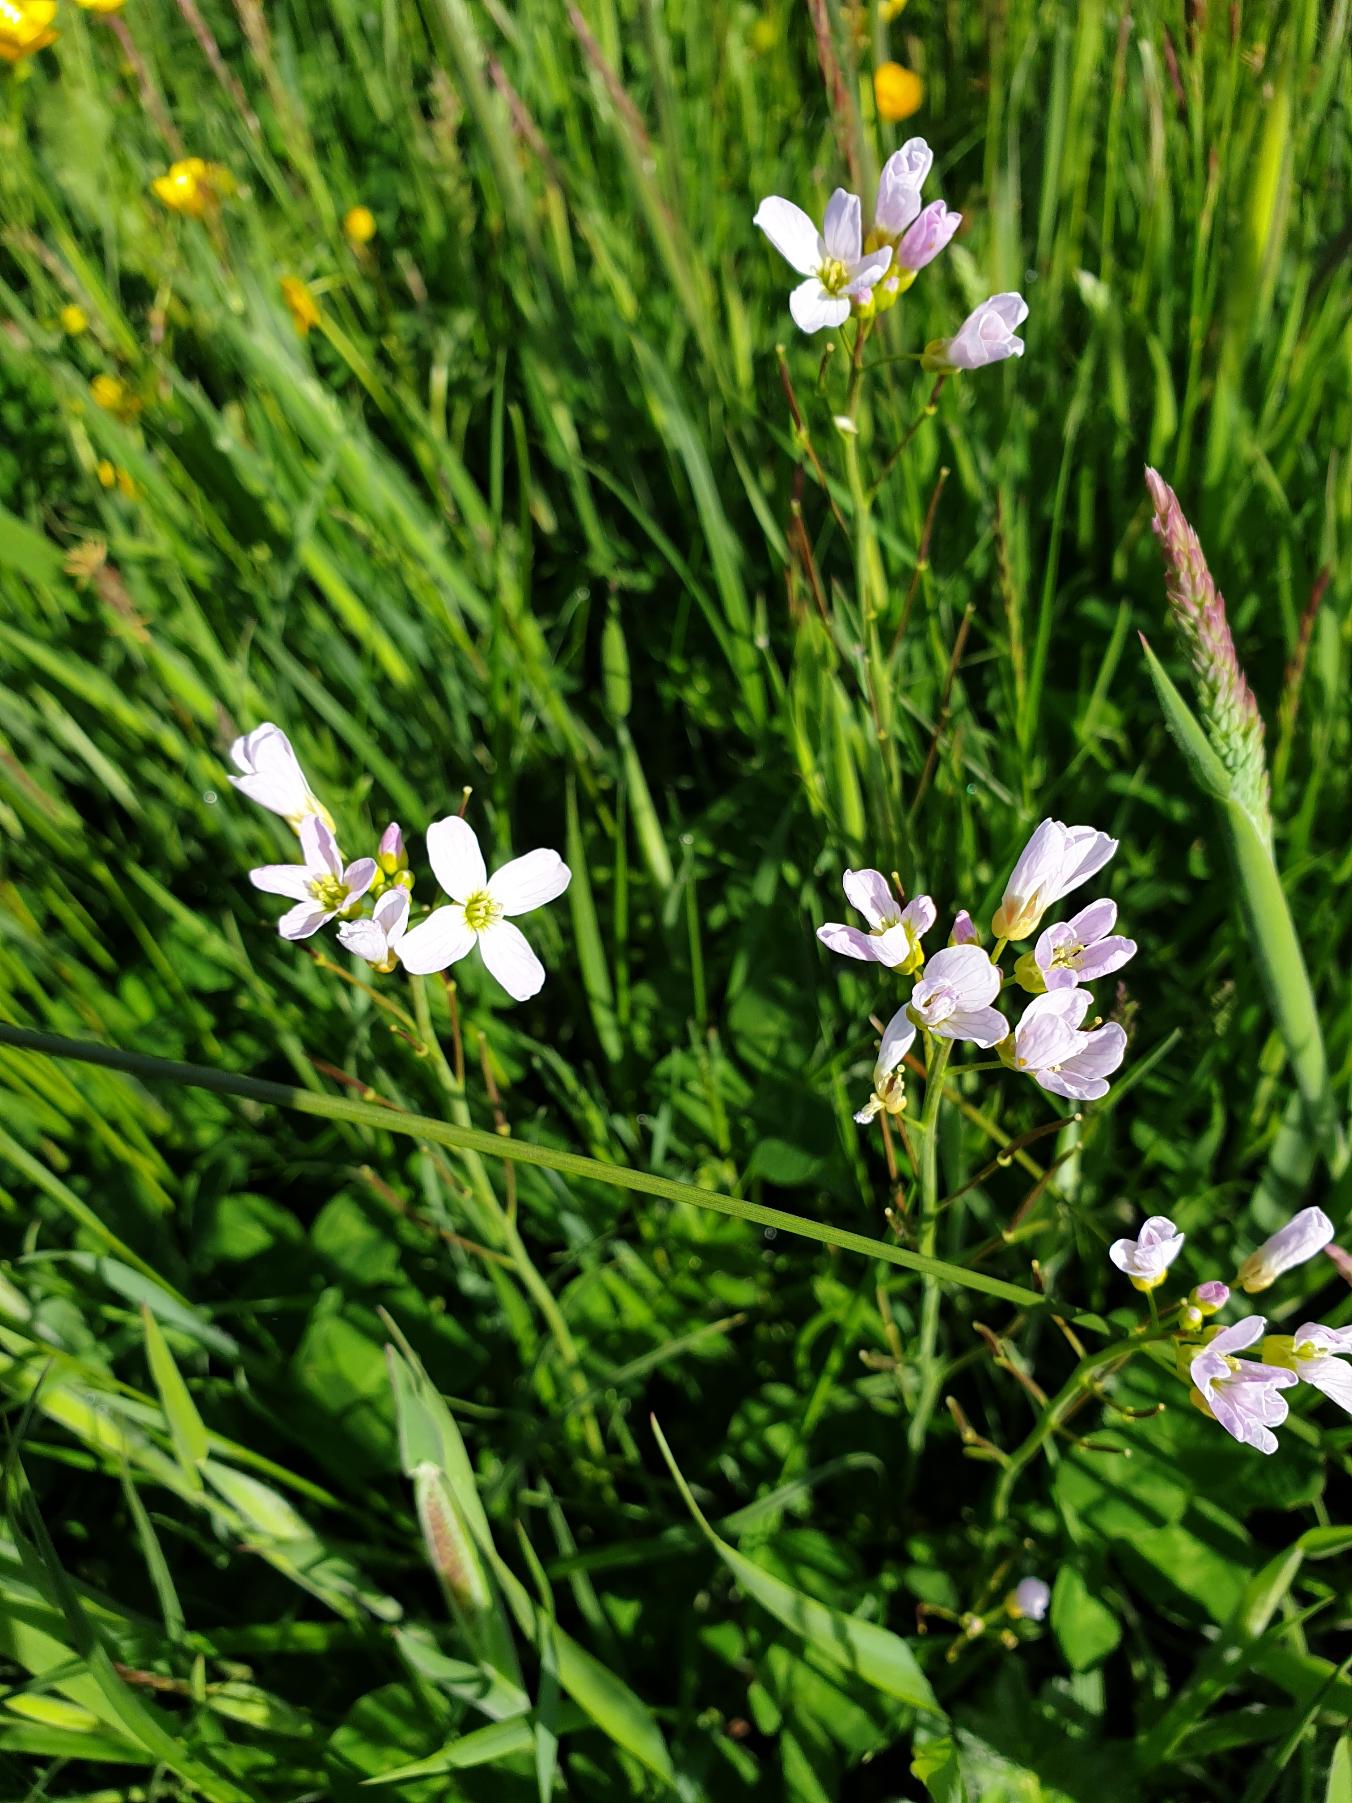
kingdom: Plantae
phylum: Tracheophyta
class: Magnoliopsida
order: Brassicales
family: Brassicaceae
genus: Cardamine
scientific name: Cardamine pratensis
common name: Almindelig engkarse
